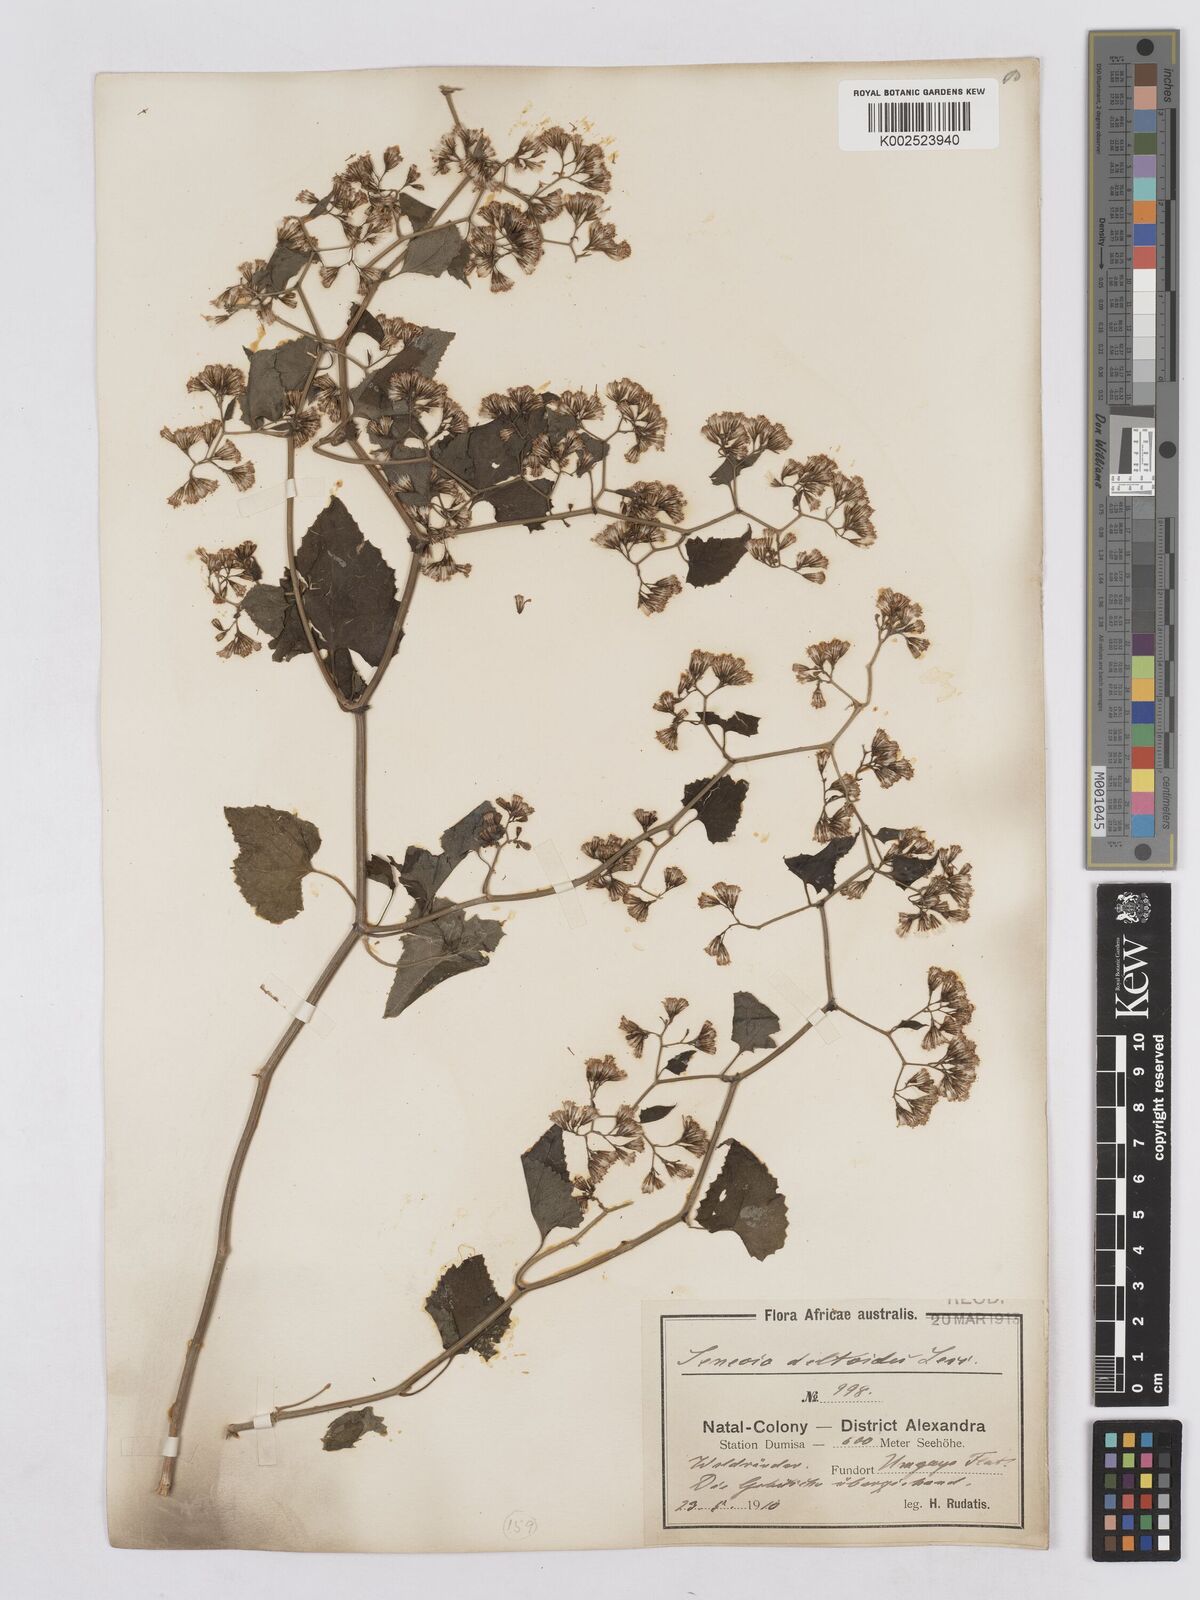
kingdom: Plantae
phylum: Tracheophyta
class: Magnoliopsida
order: Asterales
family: Asteraceae
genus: Senecio
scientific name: Senecio deltoideus
